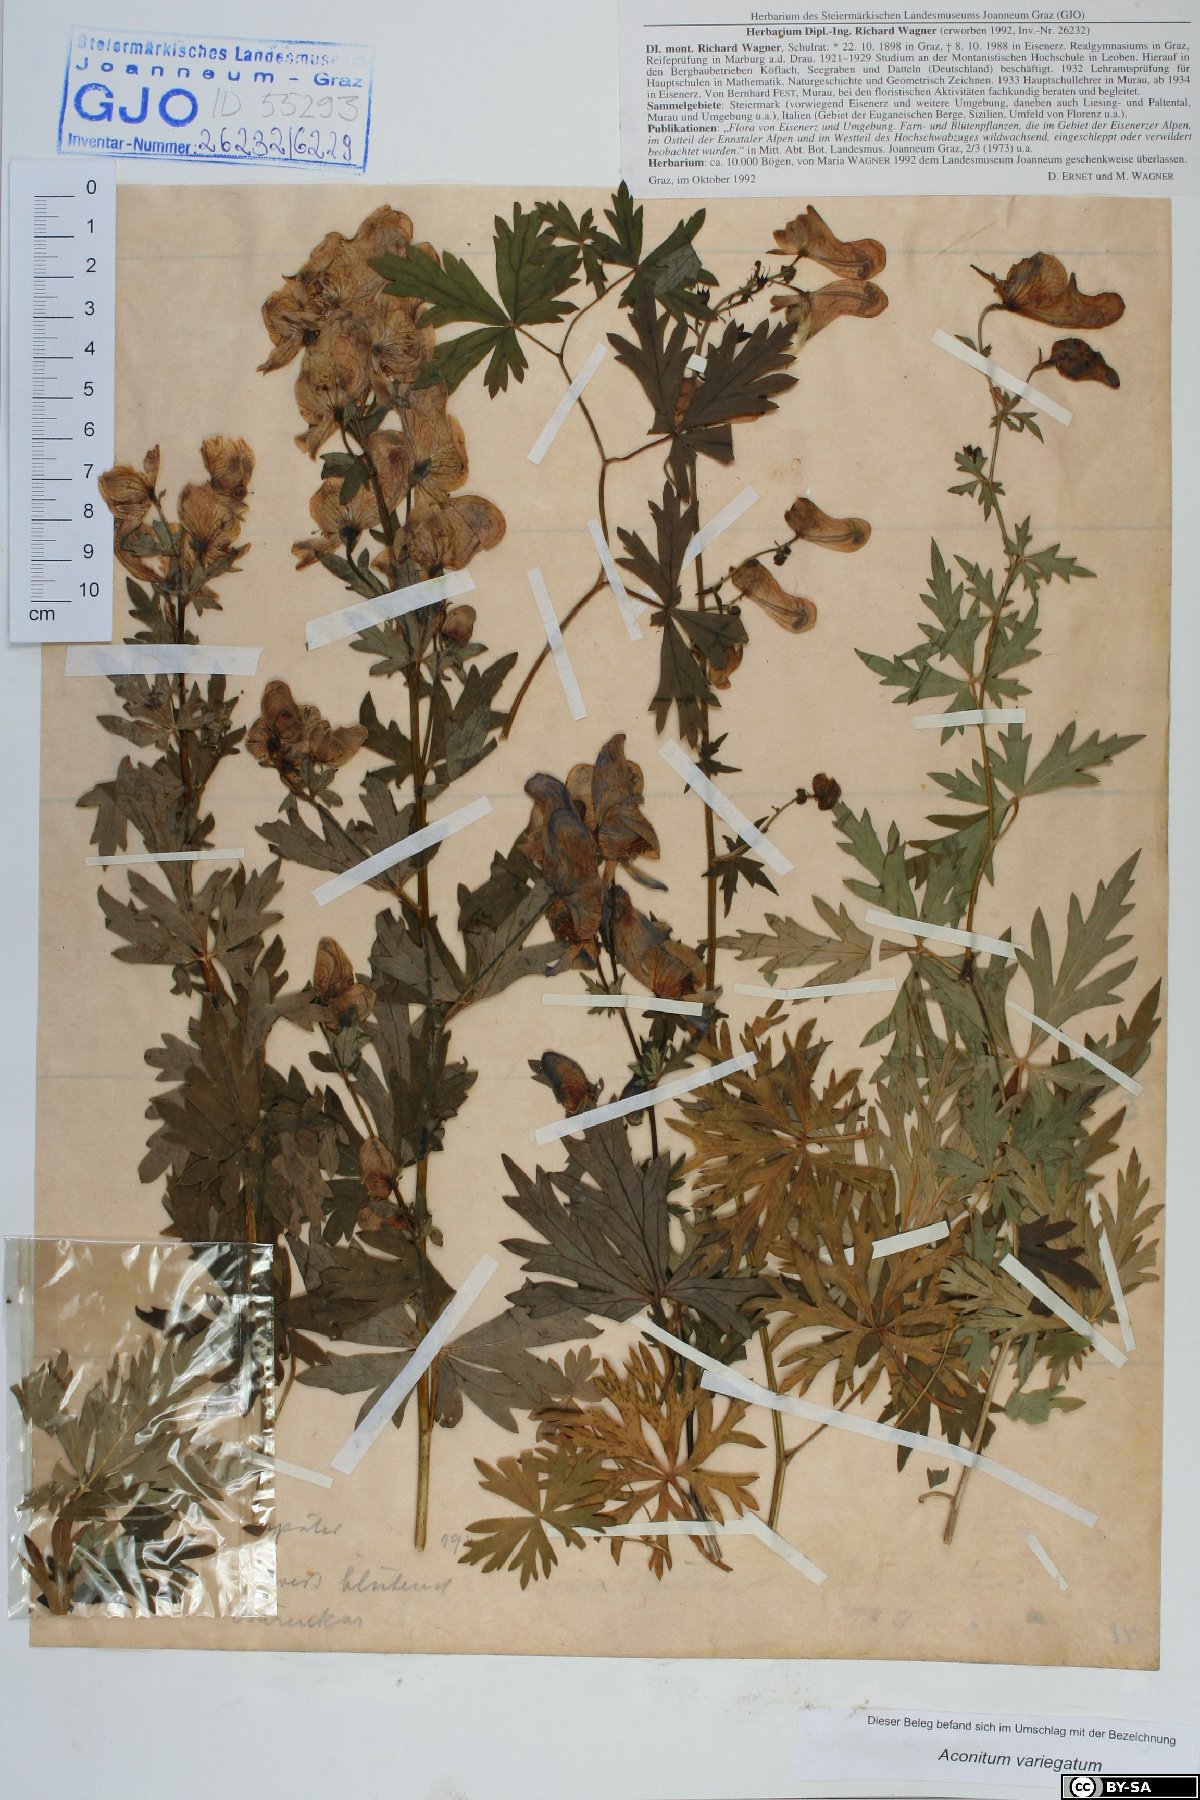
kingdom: Plantae
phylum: Tracheophyta
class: Magnoliopsida
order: Ranunculales
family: Ranunculaceae
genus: Aconitum
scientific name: Aconitum variegatum
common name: Manchurian monkshood
